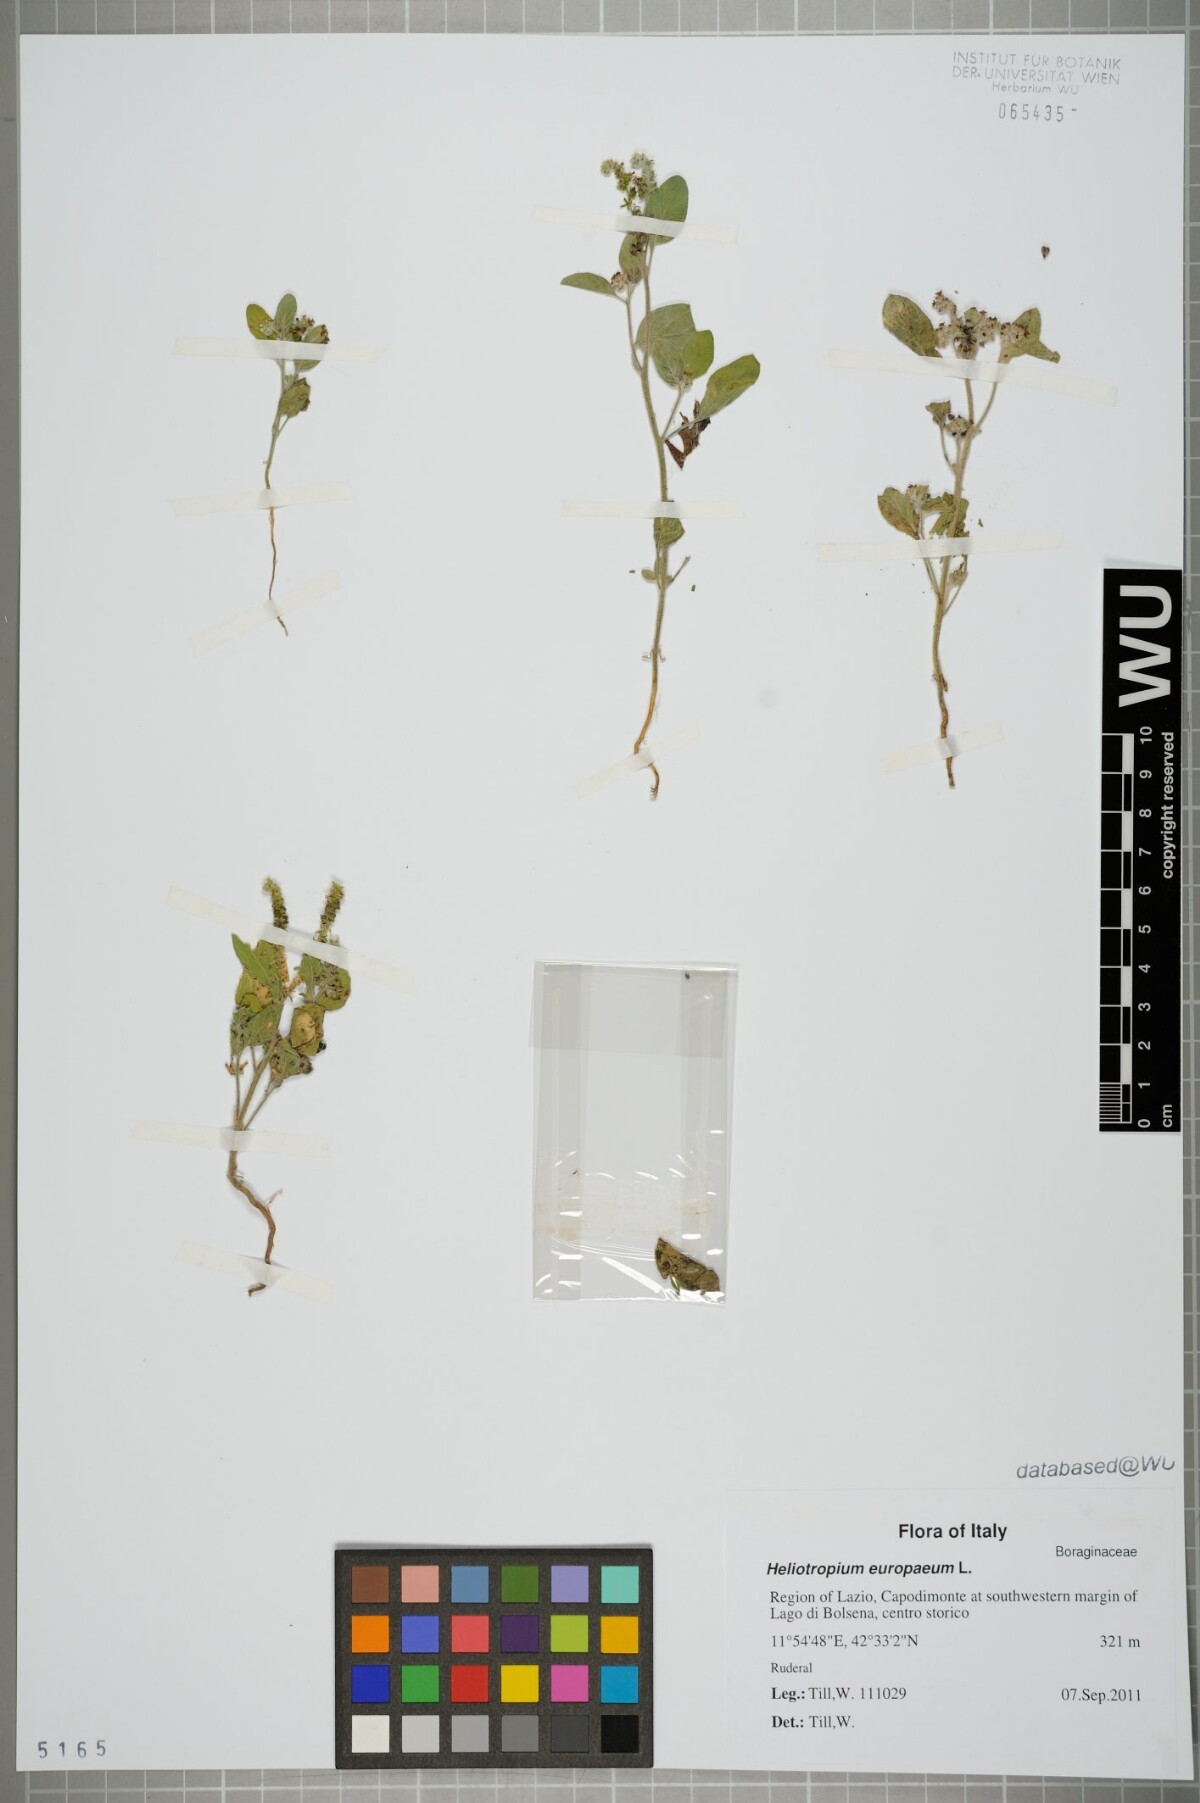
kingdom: Plantae
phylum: Tracheophyta
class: Magnoliopsida
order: Boraginales
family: Heliotropiaceae
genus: Heliotropium
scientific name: Heliotropium europaeum
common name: European heliotrope
